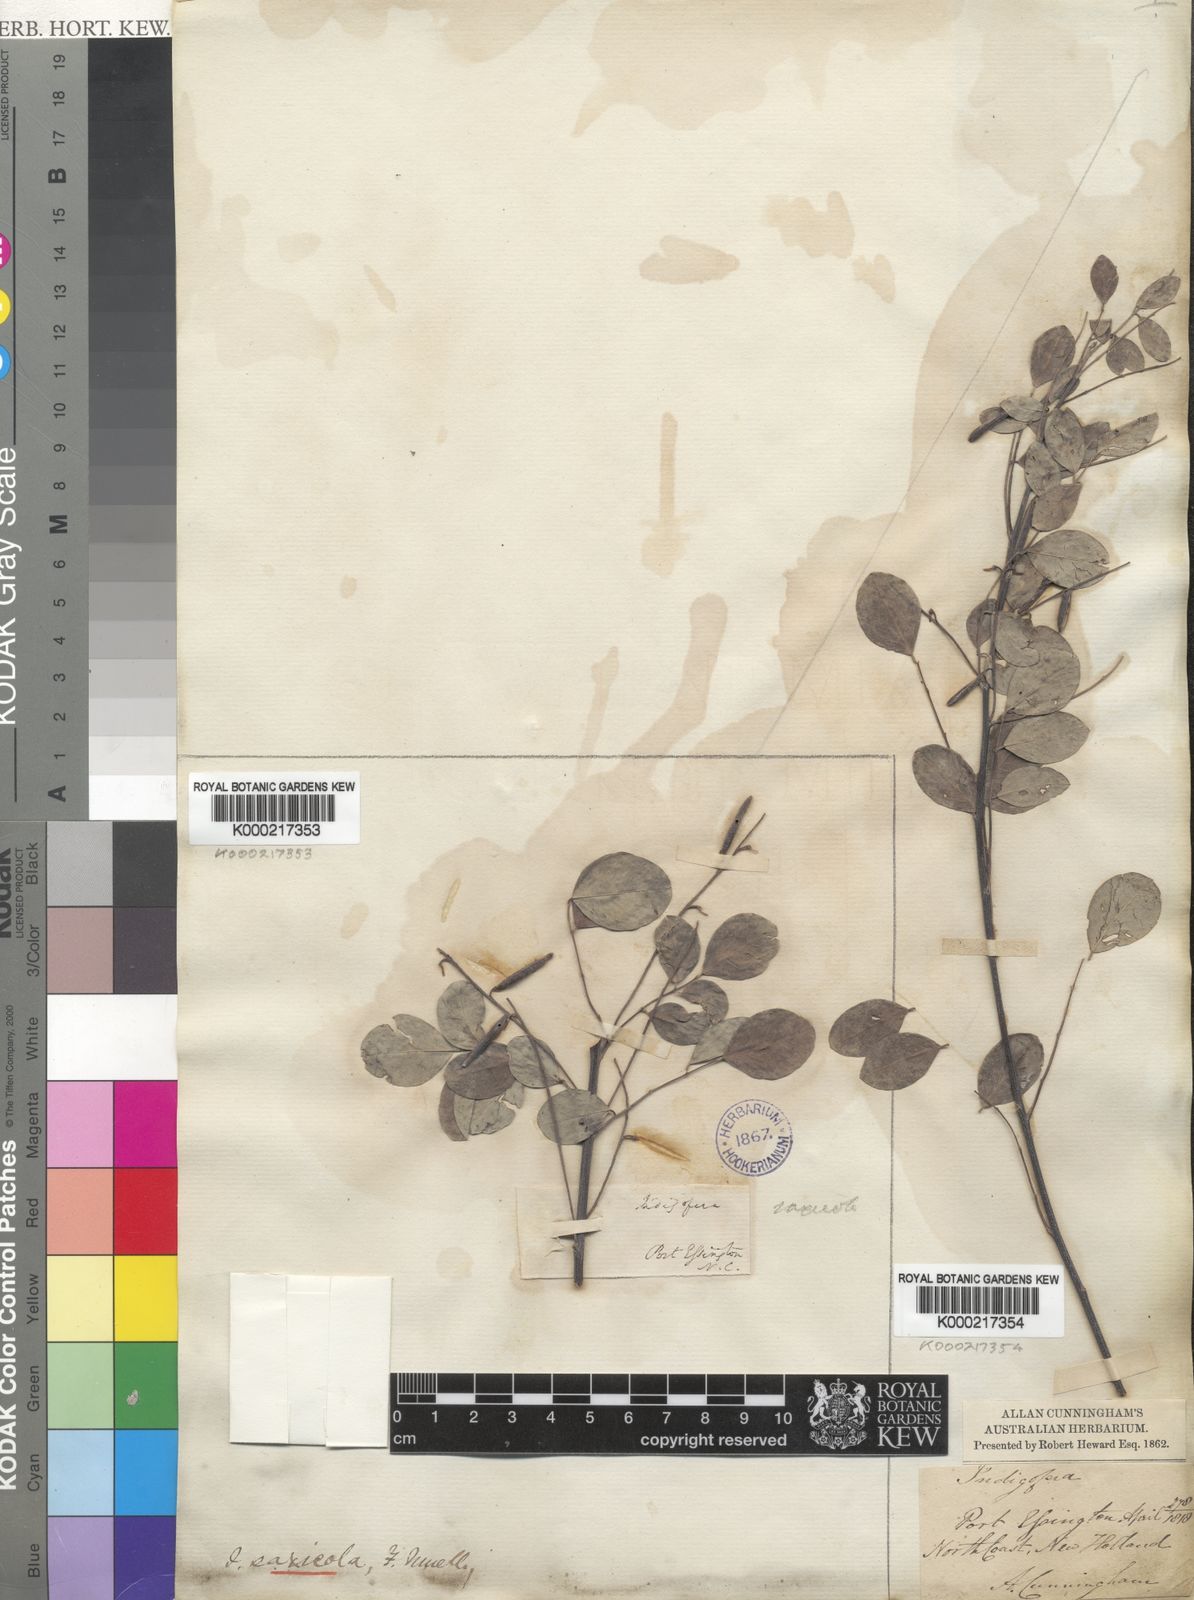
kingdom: Plantae
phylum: Tracheophyta
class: Magnoliopsida
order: Fabales
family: Fabaceae
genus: Indigofera
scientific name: Indigofera saxicola
